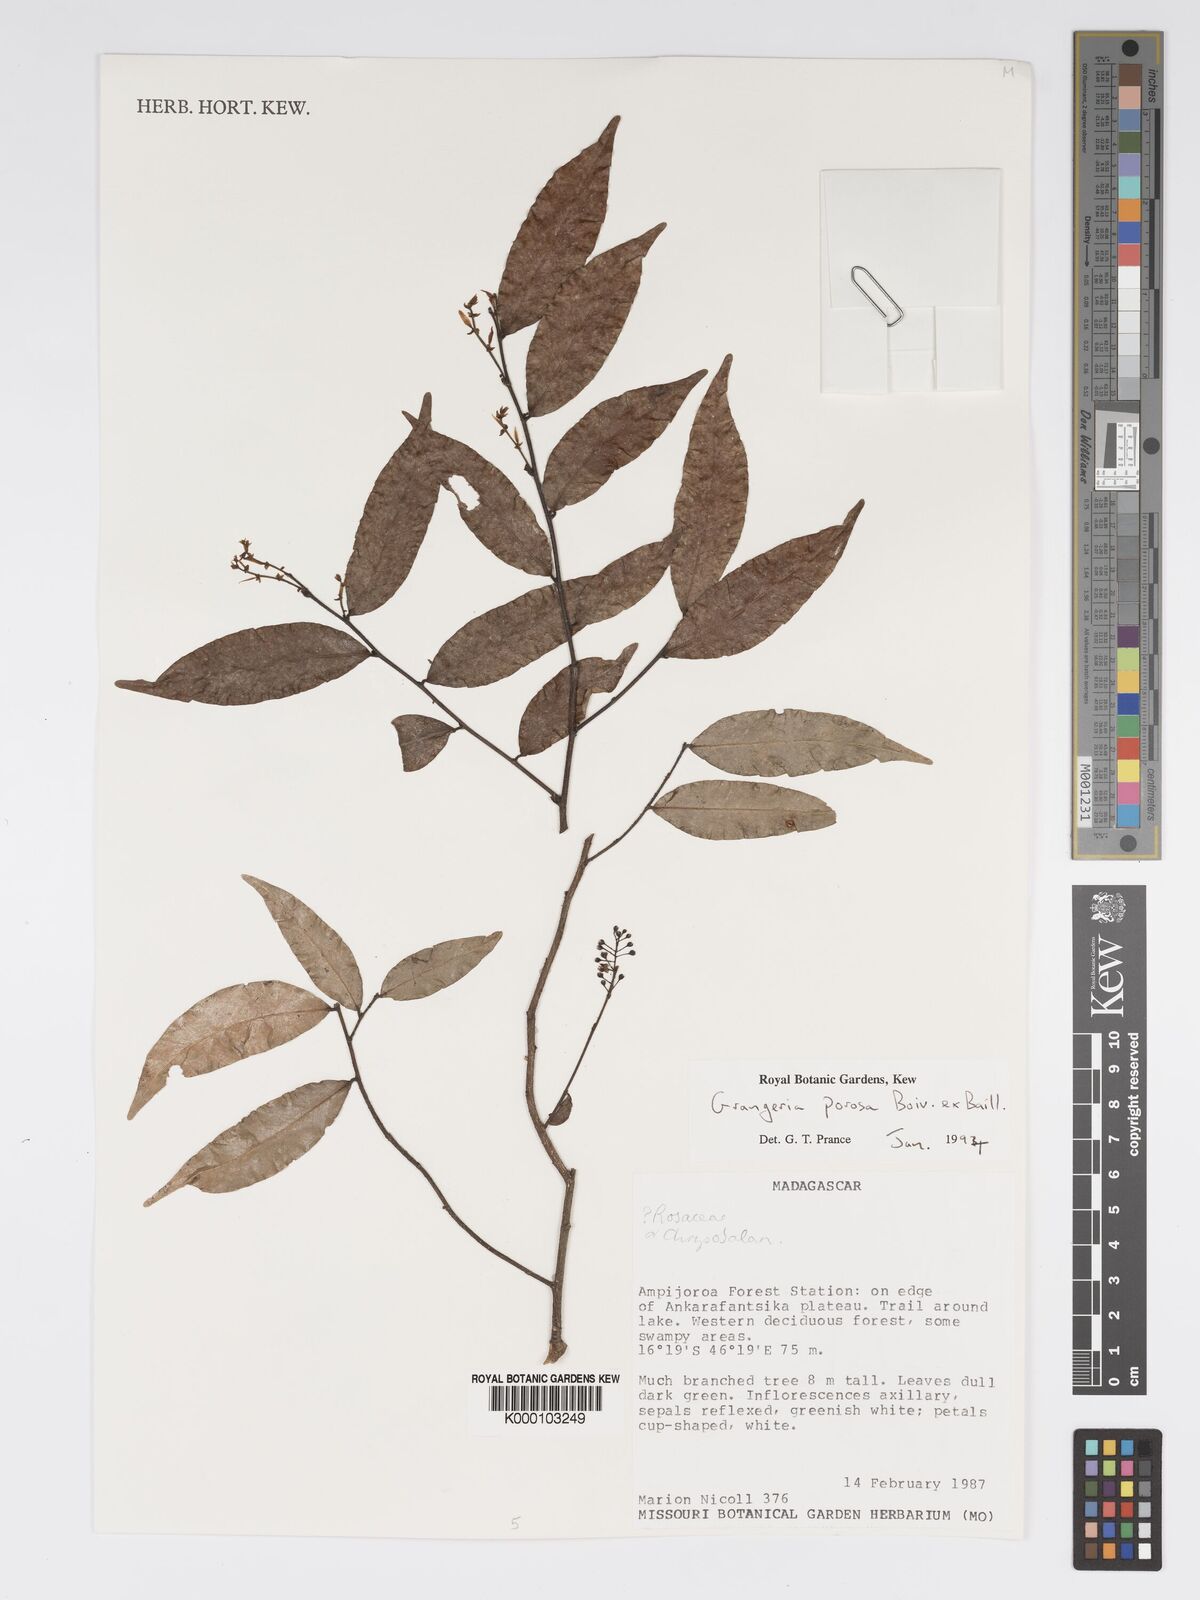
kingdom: Plantae
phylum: Tracheophyta
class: Magnoliopsida
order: Malpighiales
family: Chrysobalanaceae
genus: Grangeria
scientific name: Grangeria porosa
